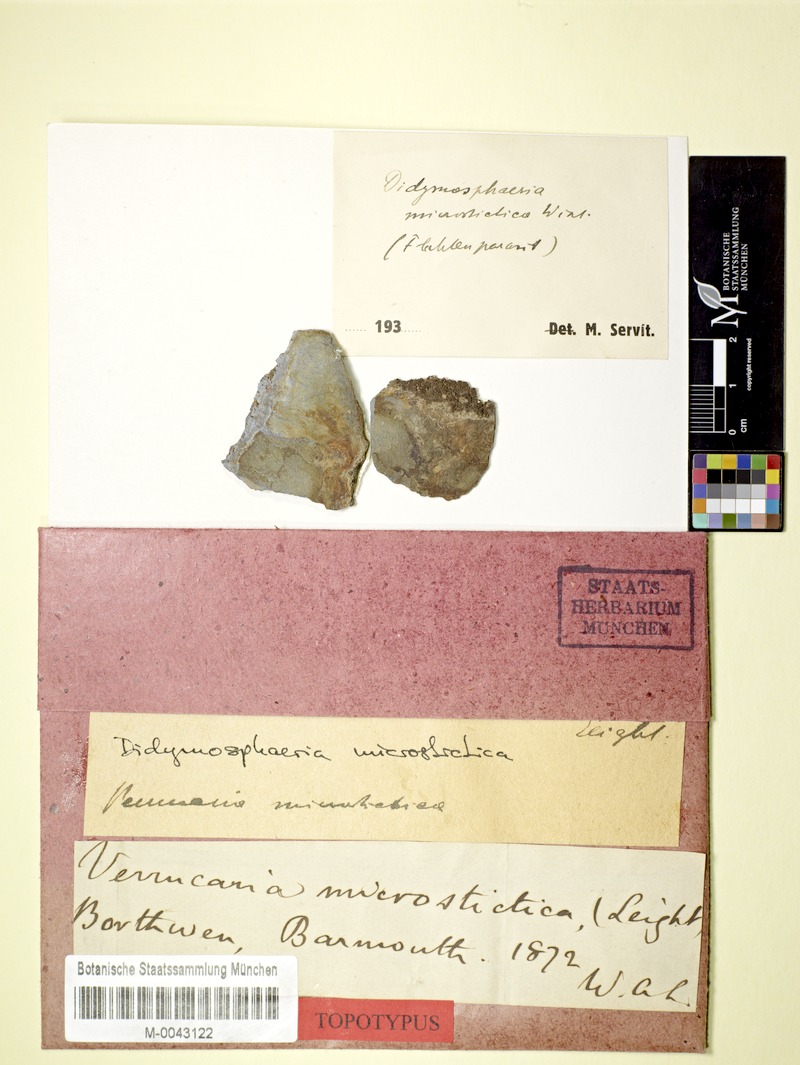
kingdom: Fungi
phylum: Ascomycota
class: Dothideomycetes
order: Trypetheliales
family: Polycoccaceae
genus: Polycoccum
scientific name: Polycoccum microsticticum
